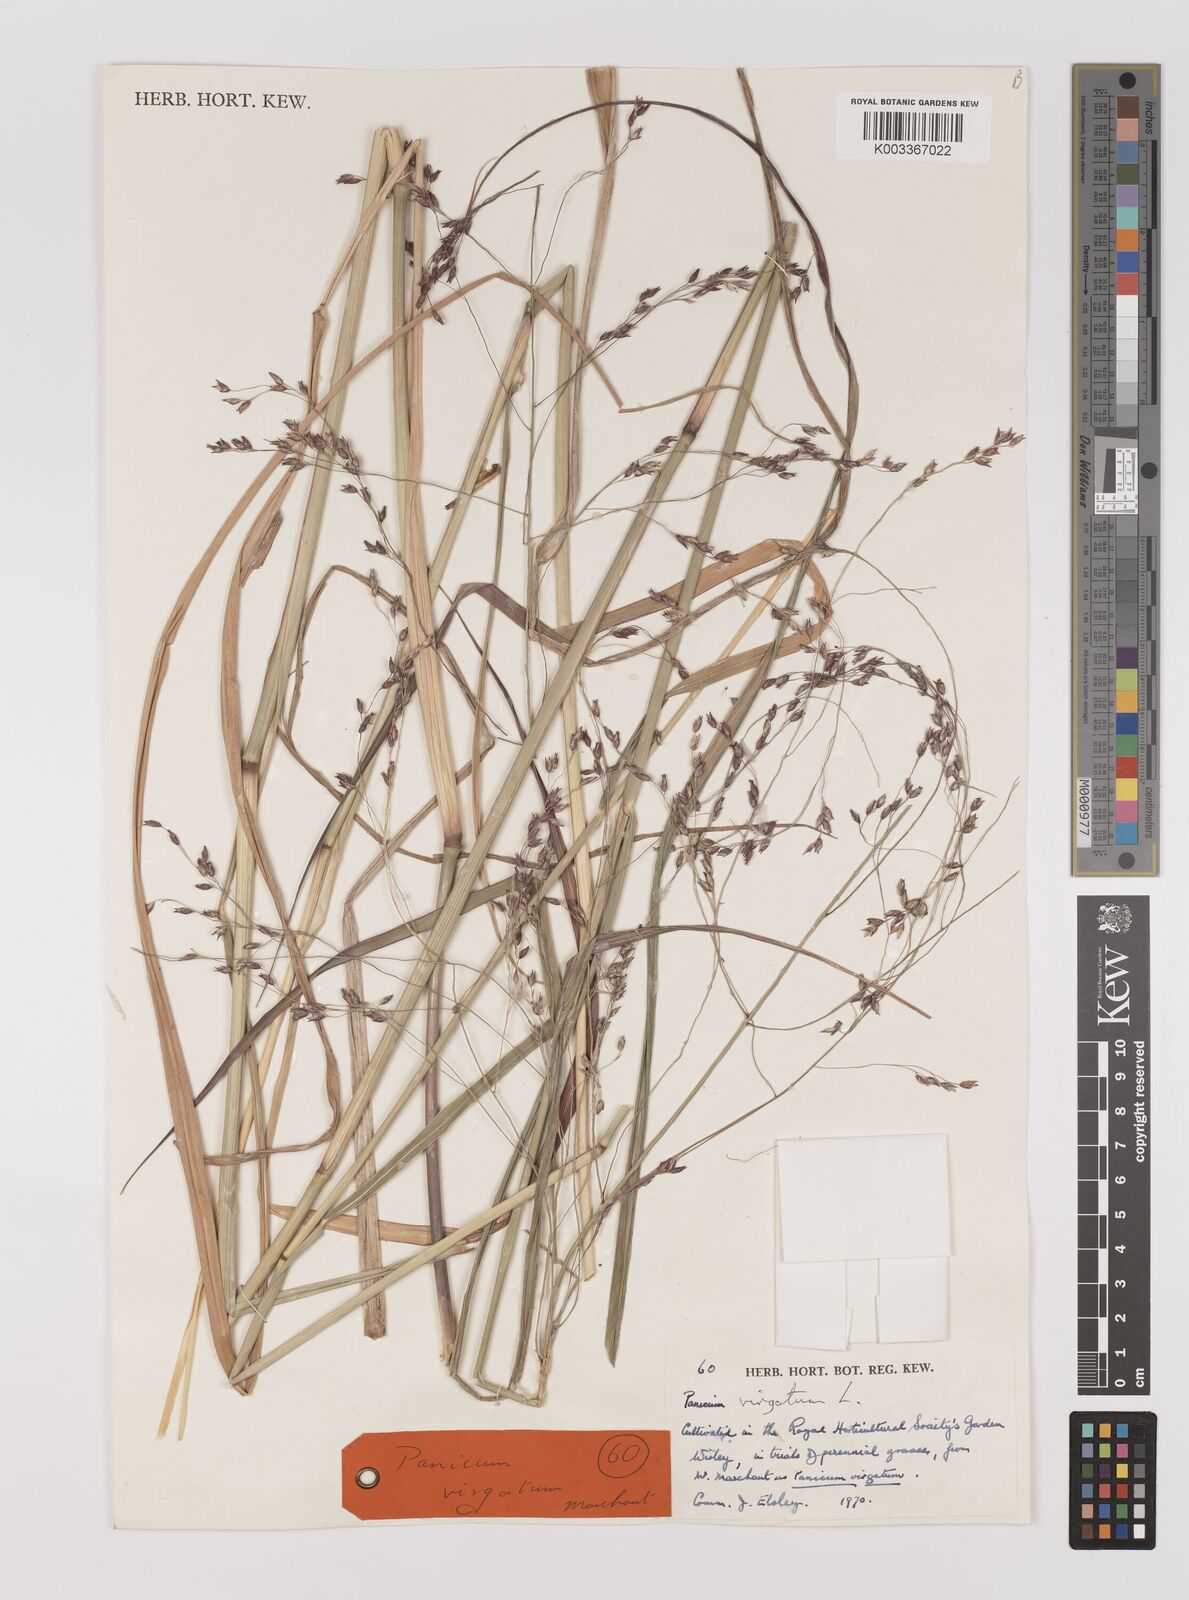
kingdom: Plantae
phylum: Tracheophyta
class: Liliopsida
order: Poales
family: Poaceae
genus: Panicum
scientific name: Panicum virgatum
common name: Switchgrass
